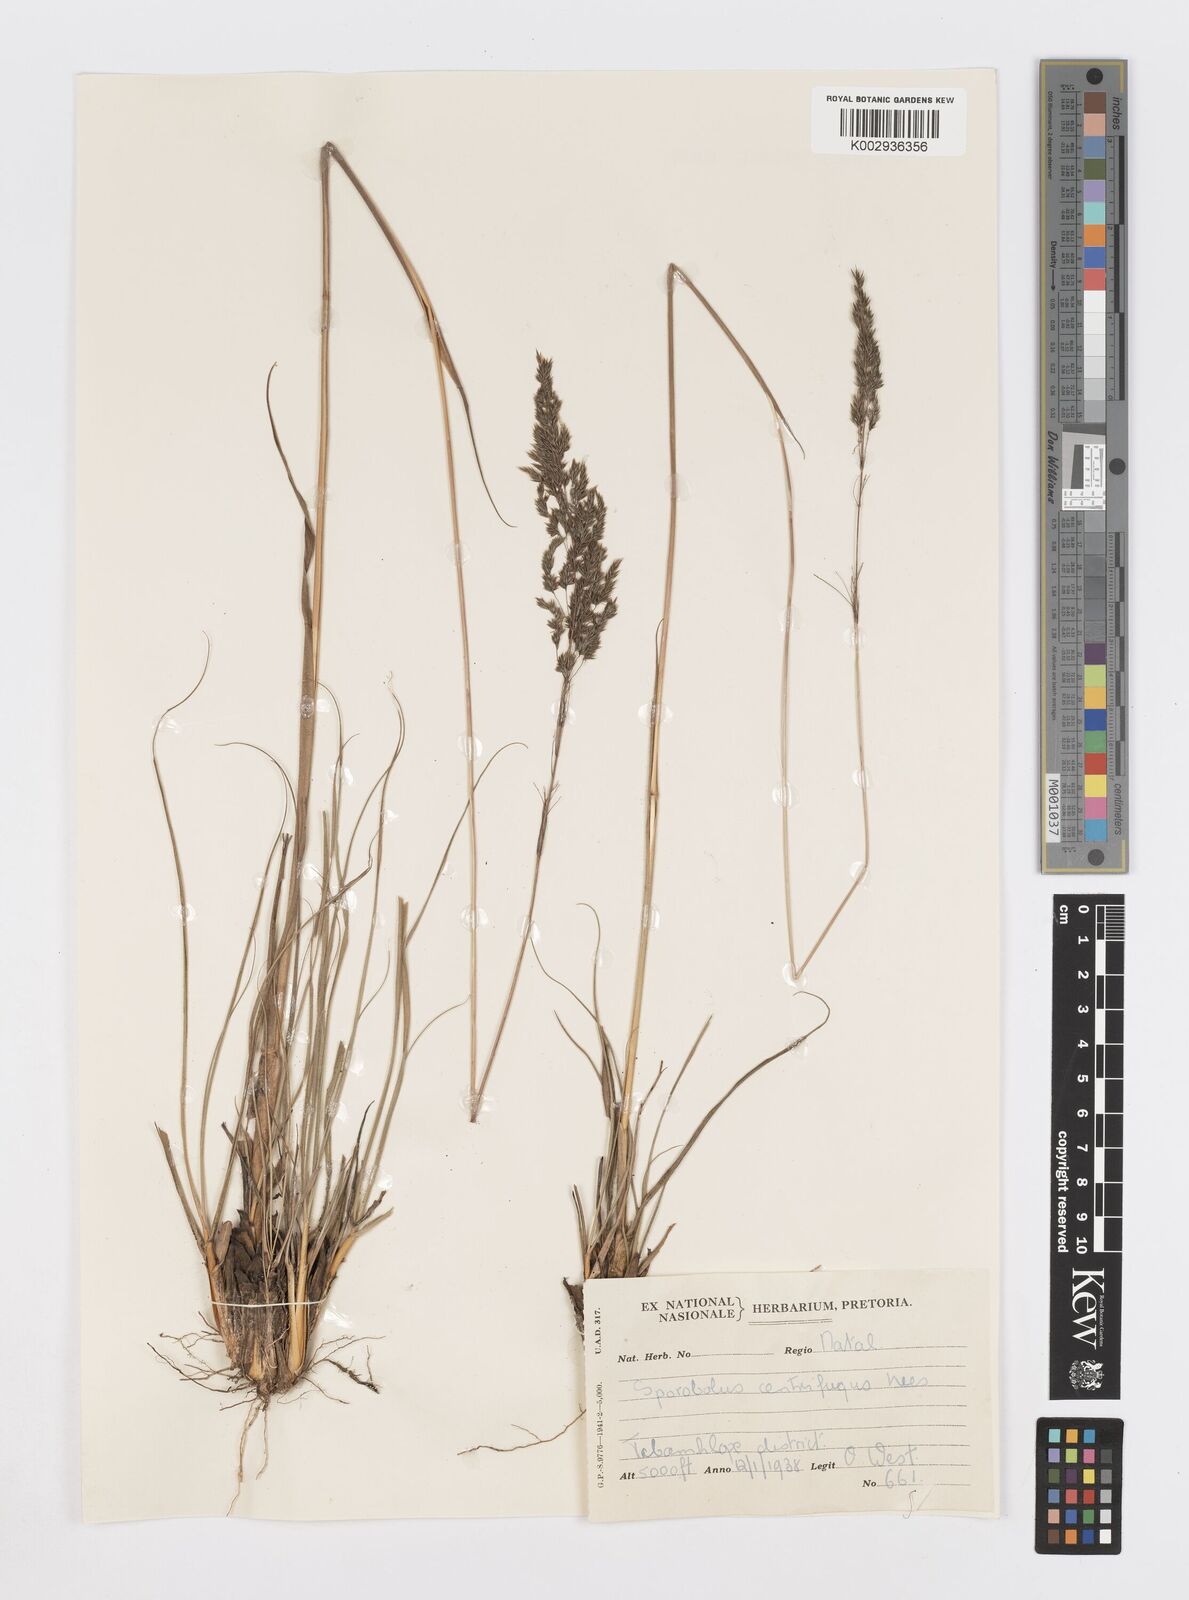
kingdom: Plantae
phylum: Tracheophyta
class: Liliopsida
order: Poales
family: Poaceae
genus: Sporobolus
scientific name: Sporobolus centrifugus
